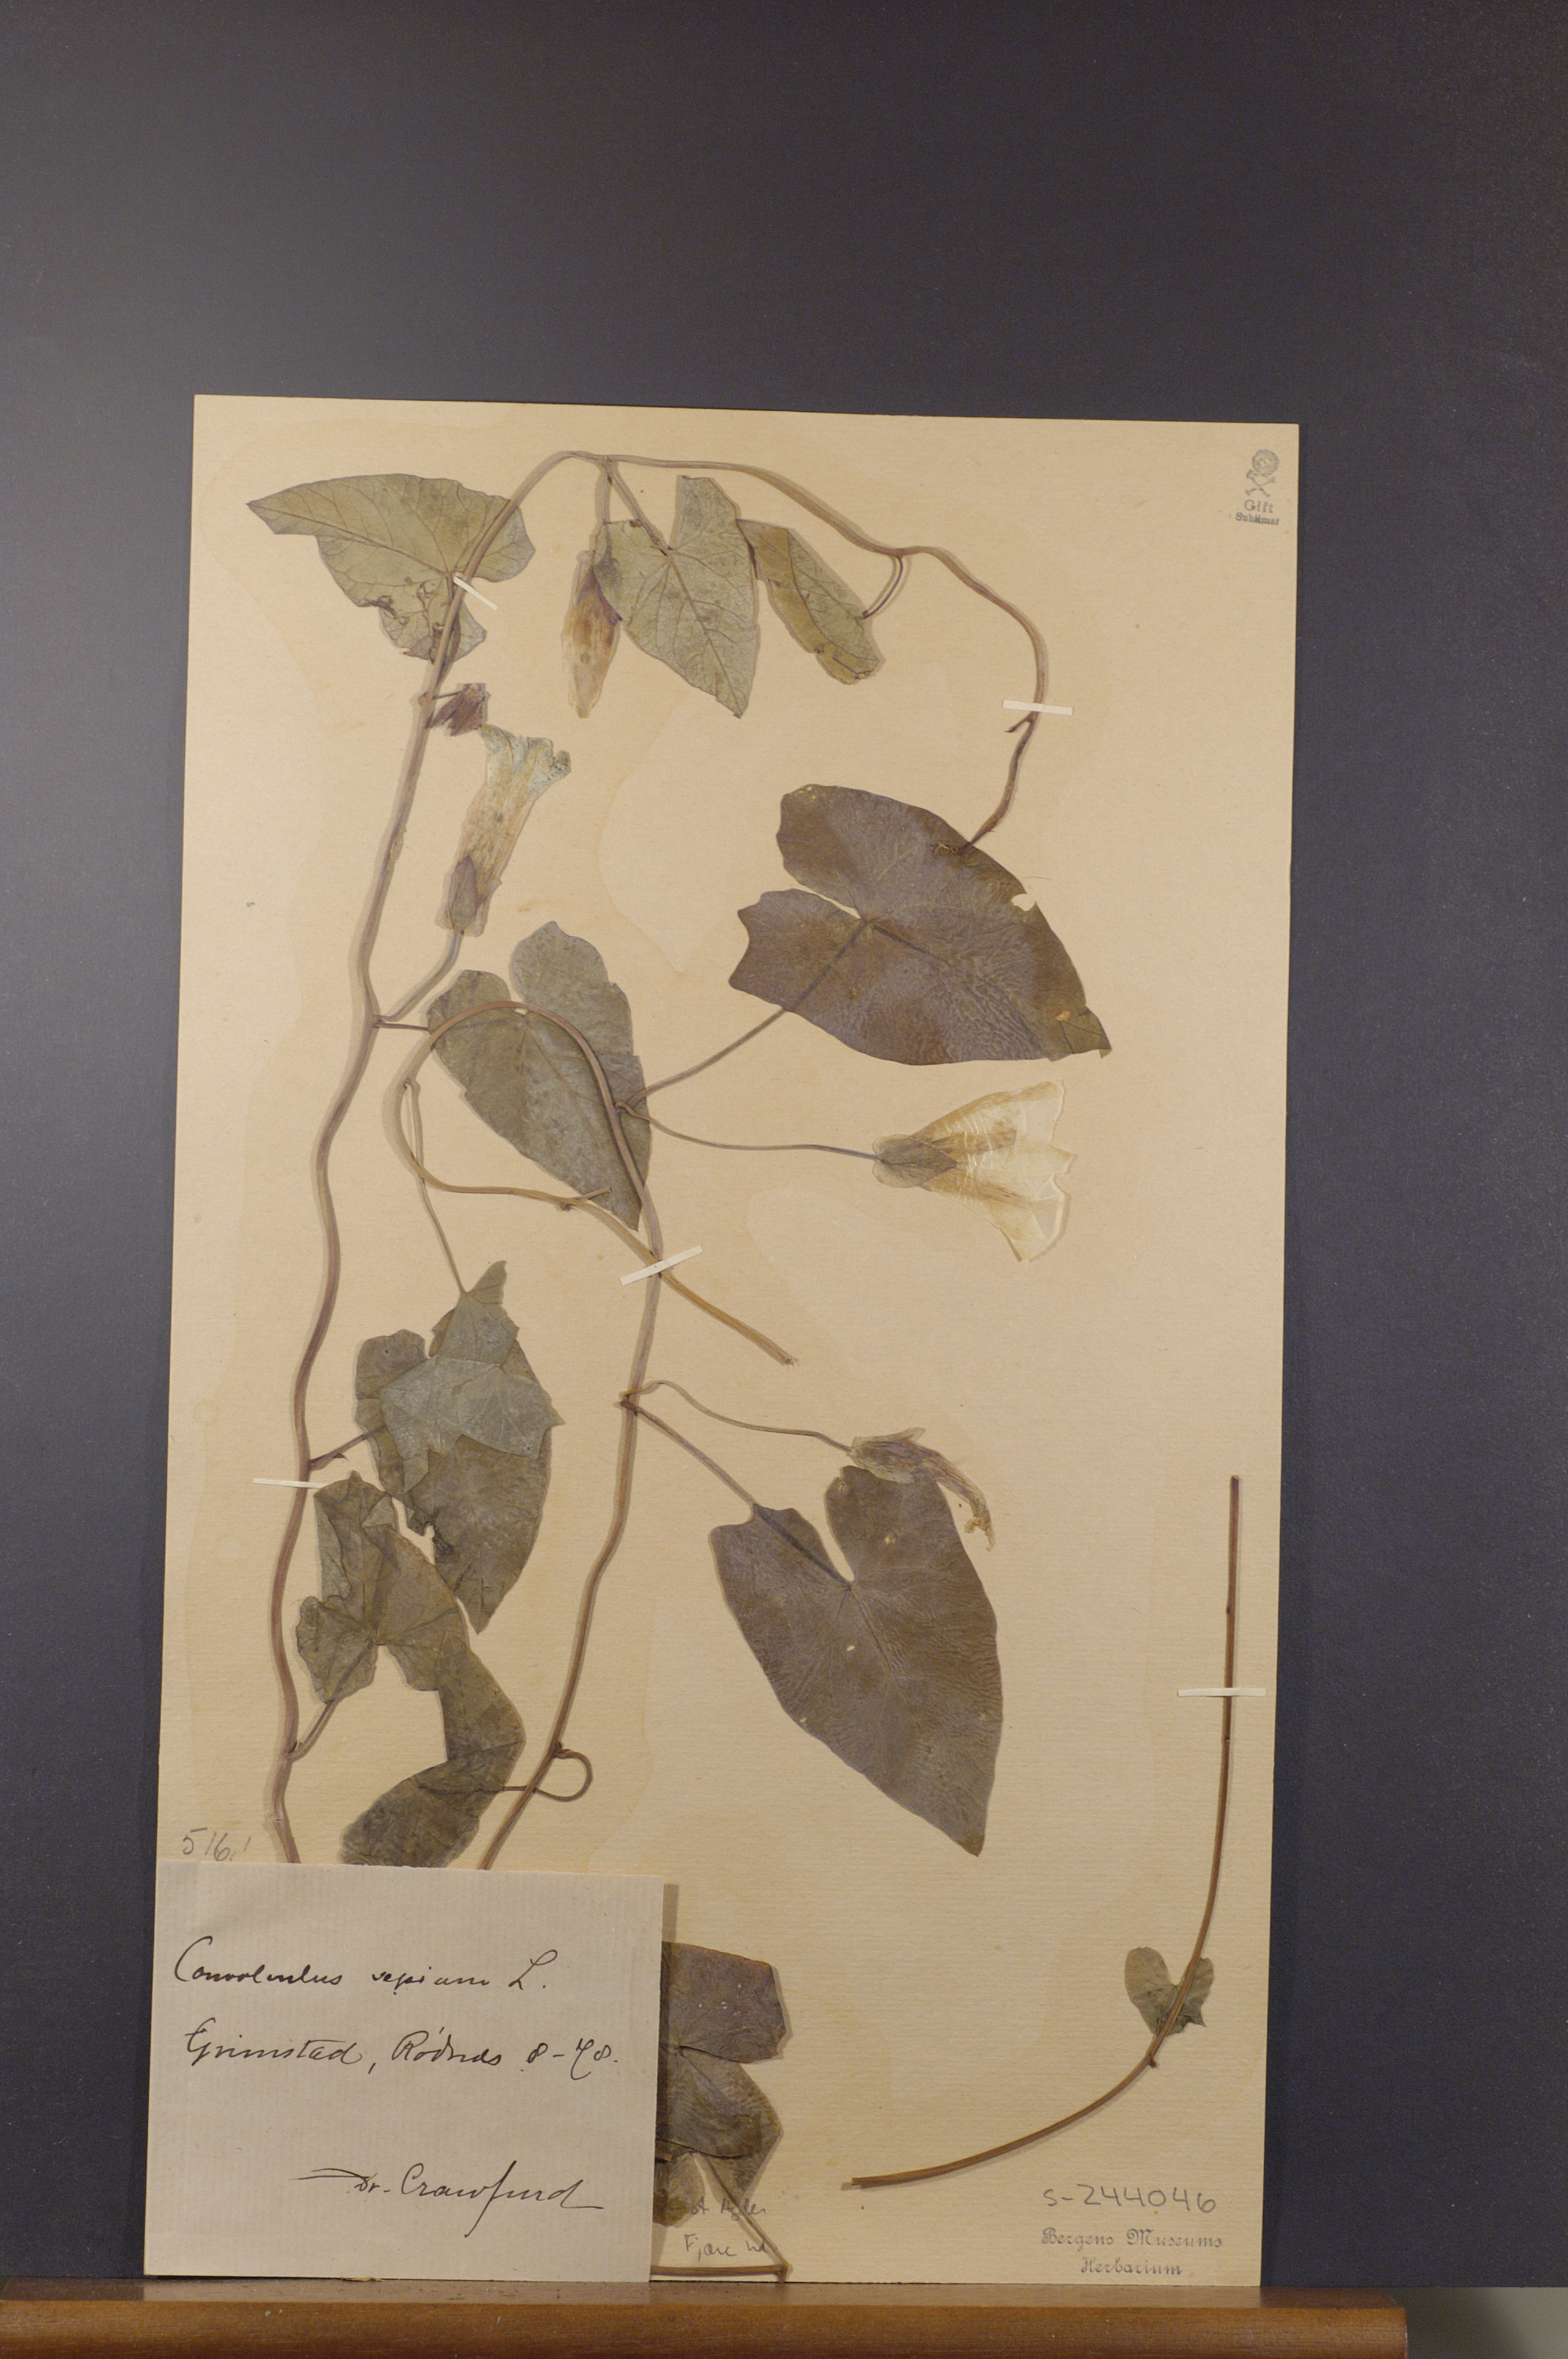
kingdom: Plantae
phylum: Tracheophyta
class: Magnoliopsida
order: Solanales
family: Convolvulaceae
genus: Calystegia
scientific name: Calystegia sepium
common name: Hedge bindweed
